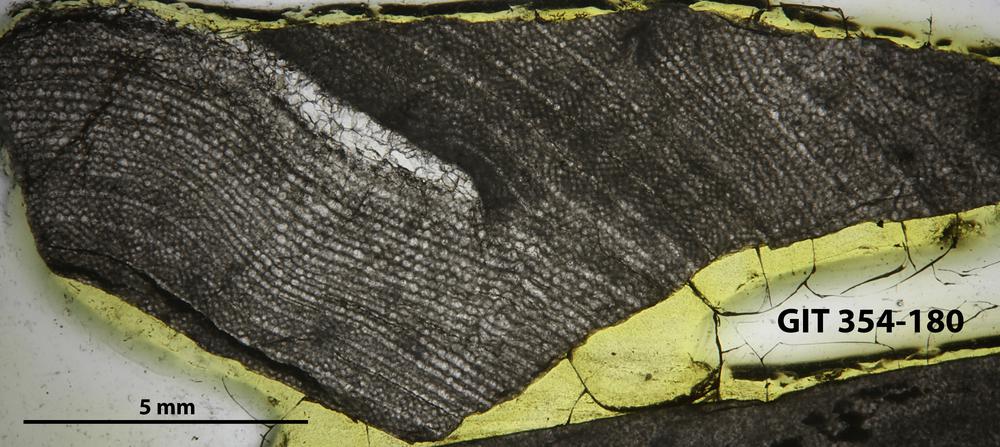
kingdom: Animalia
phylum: Porifera
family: Clathrodictyidae
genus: Clathrodictyon
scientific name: Clathrodictyon boreale
